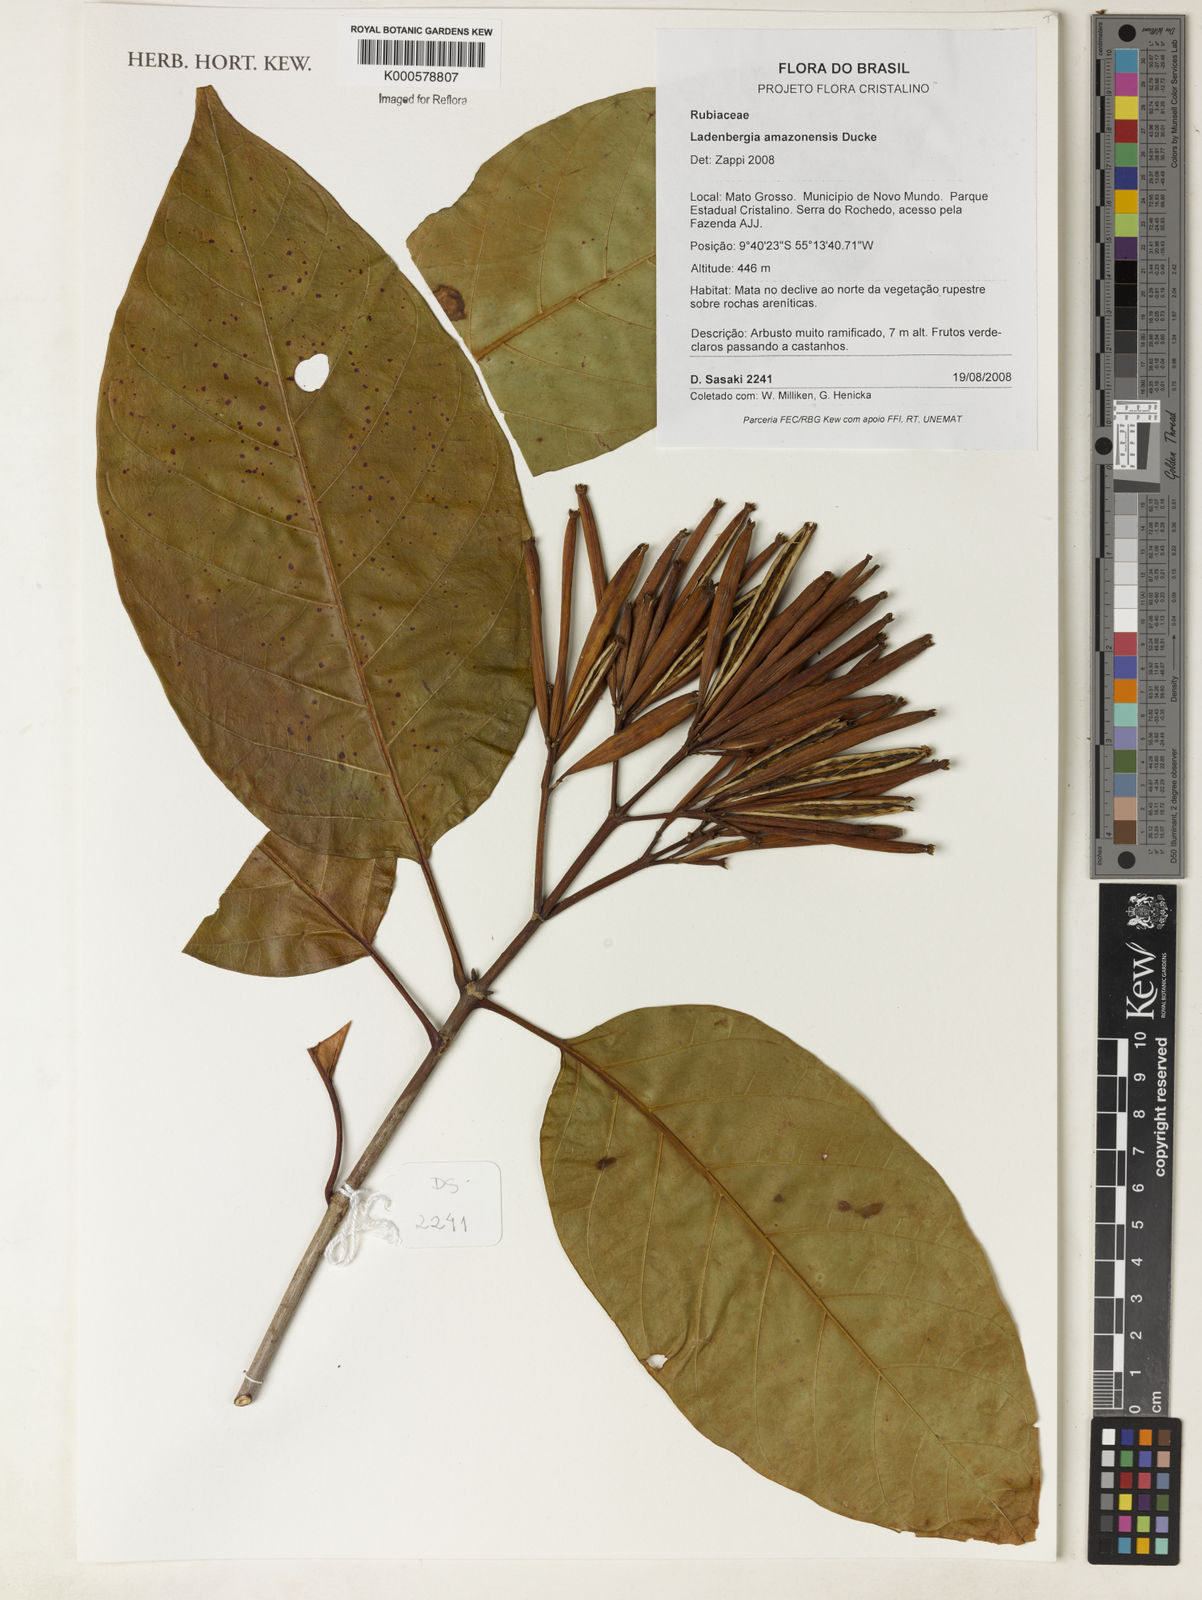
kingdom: Plantae
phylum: Tracheophyta
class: Magnoliopsida
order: Gentianales
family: Rubiaceae
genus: Ladenbergia
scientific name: Ladenbergia amazonensis
